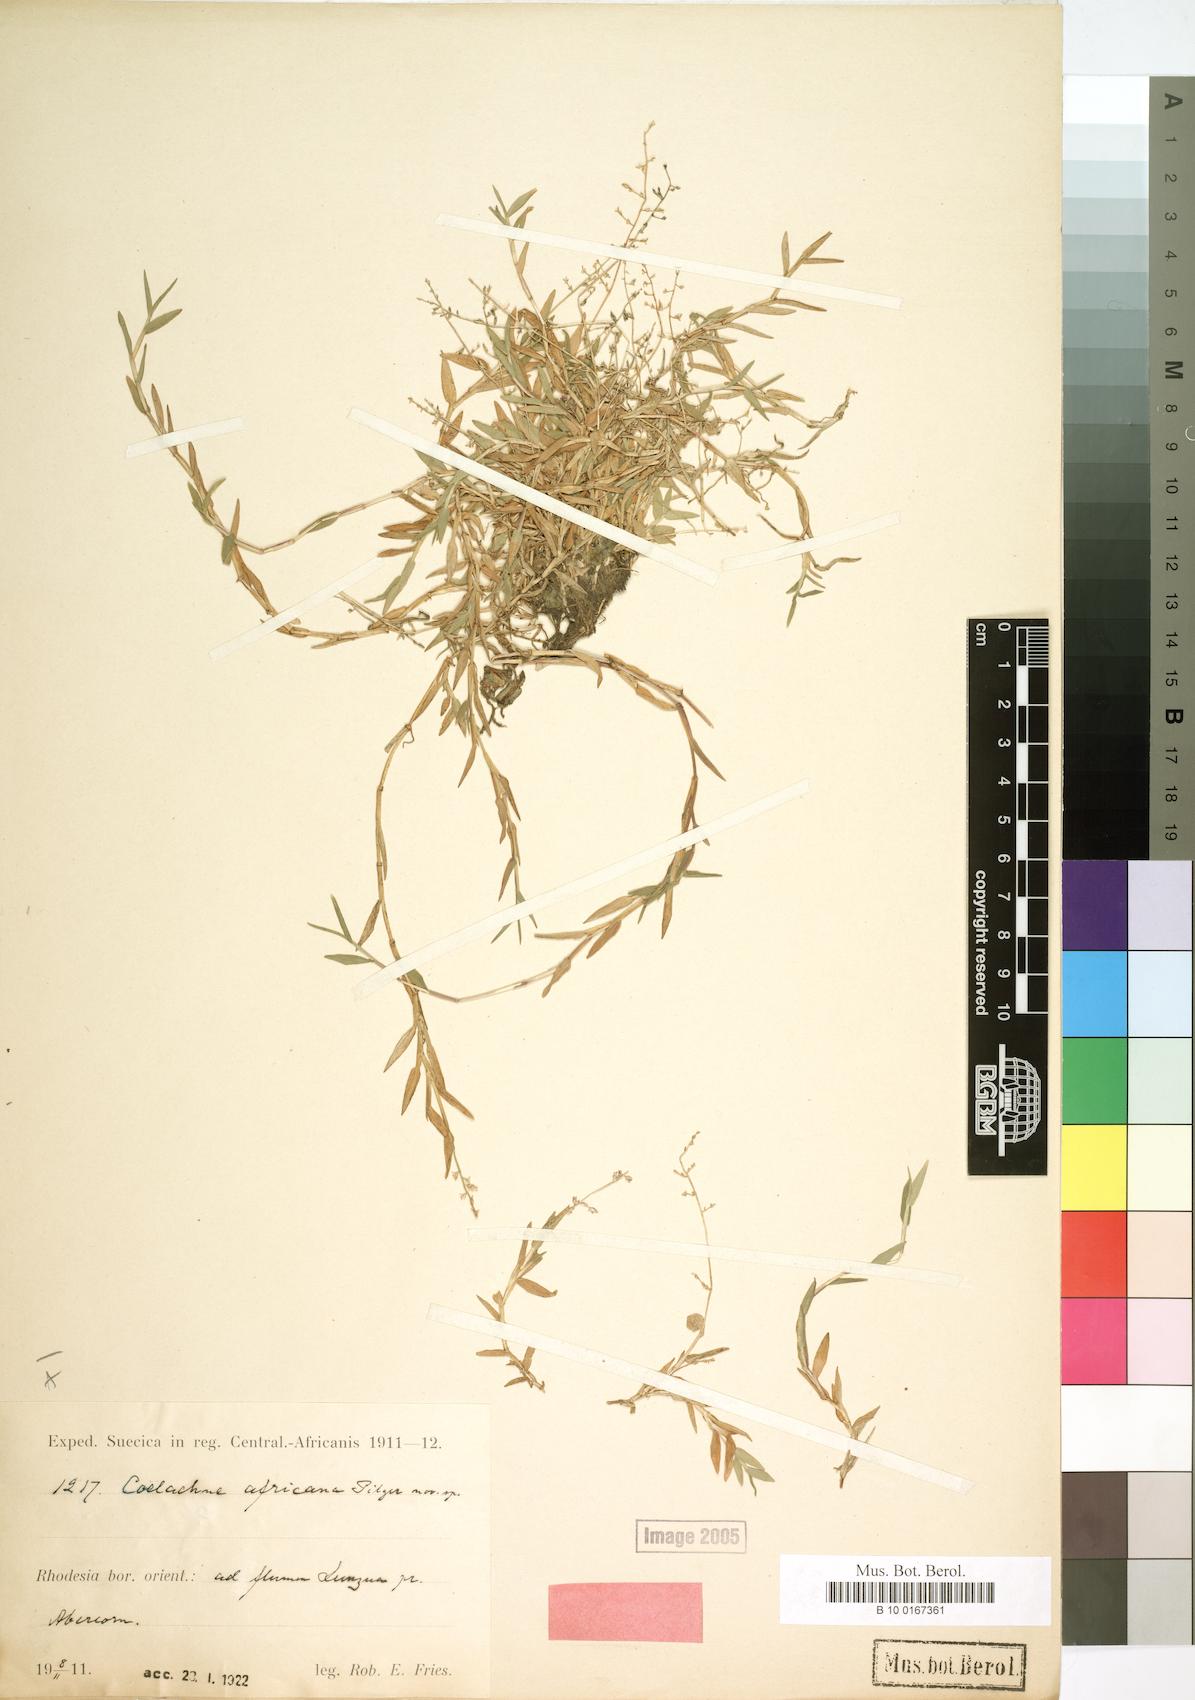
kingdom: Plantae
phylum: Tracheophyta
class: Liliopsida
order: Poales
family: Poaceae
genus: Coelachne
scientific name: Coelachne africana
